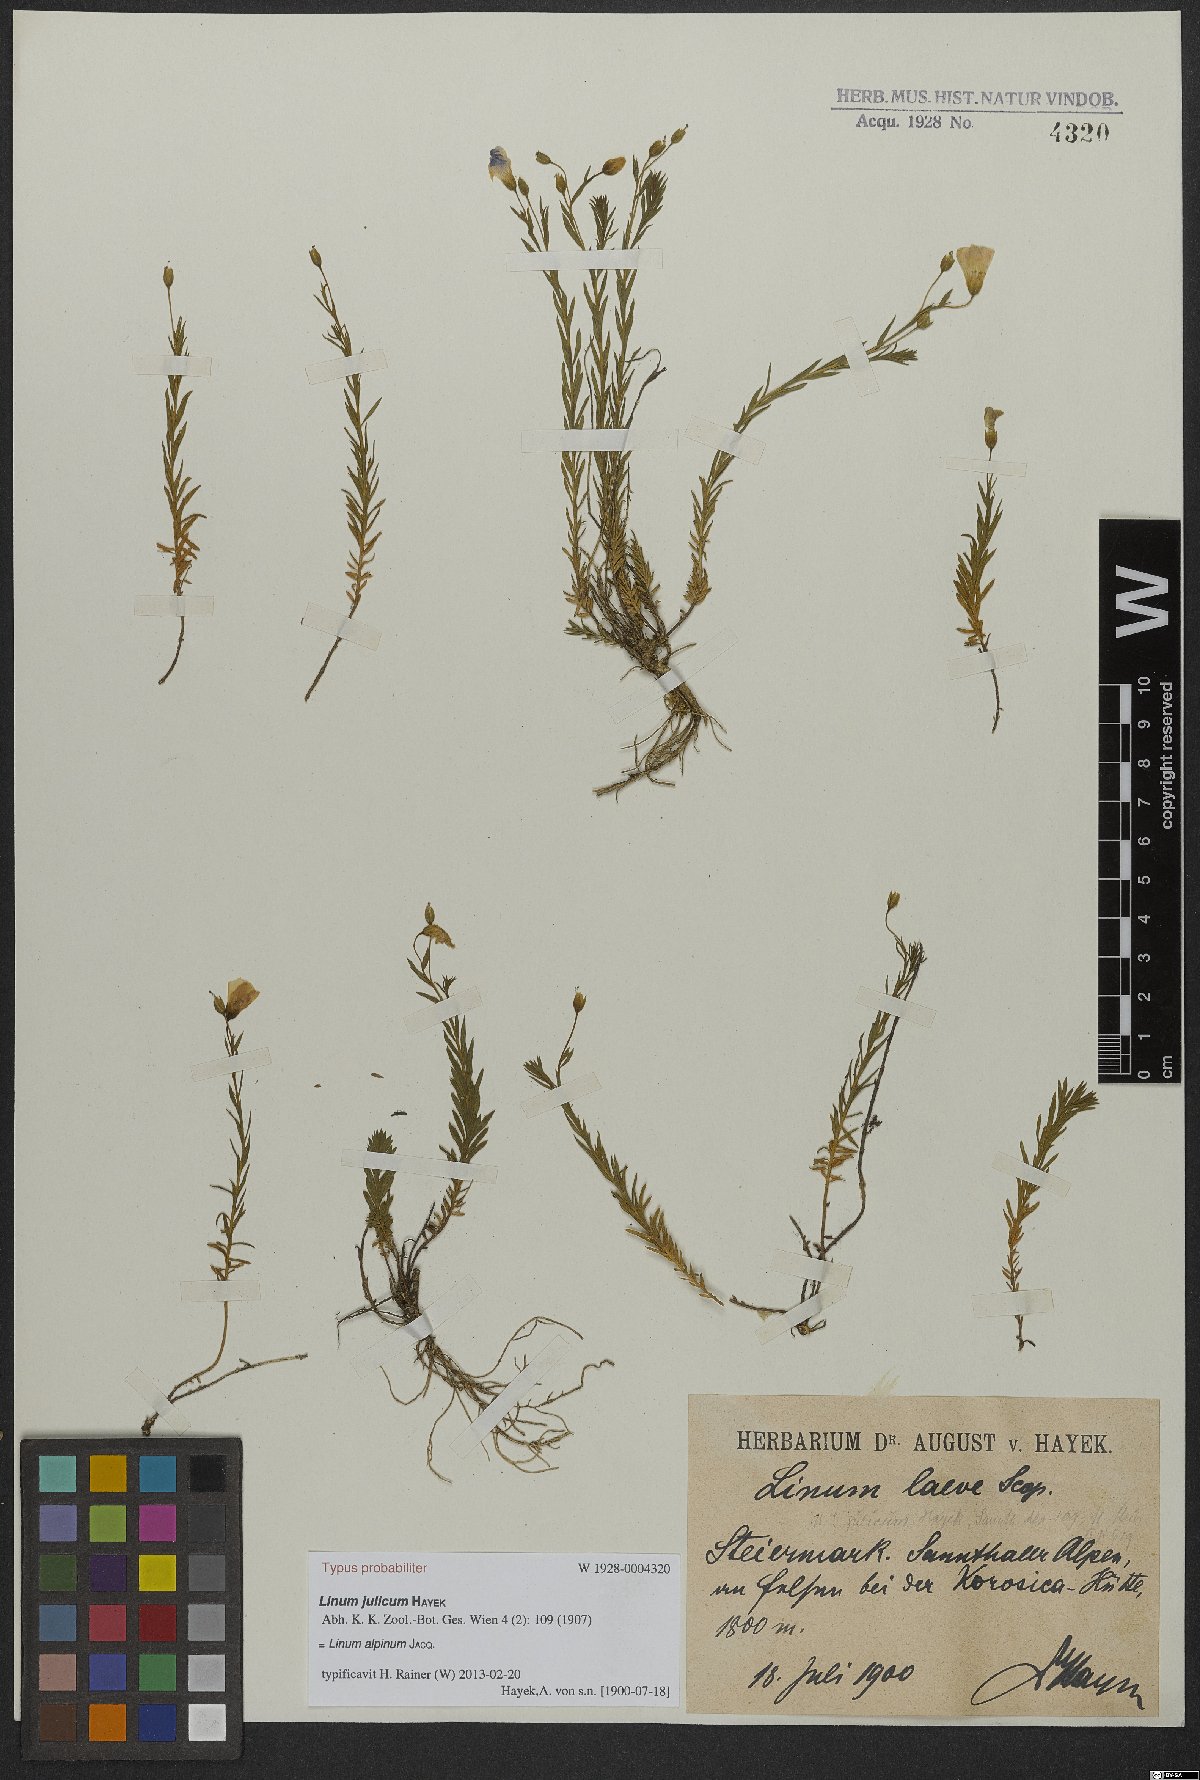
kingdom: Plantae
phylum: Tracheophyta
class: Magnoliopsida
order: Malpighiales
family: Linaceae
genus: Linum
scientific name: Linum alpinum
